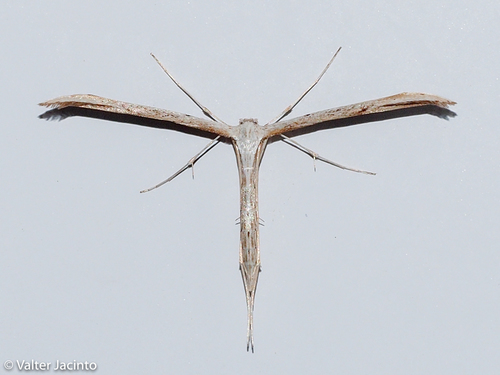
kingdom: Animalia
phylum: Arthropoda
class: Insecta
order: Lepidoptera
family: Pterophoridae
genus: Emmelina
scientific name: Emmelina monodactyla
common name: Common plume
